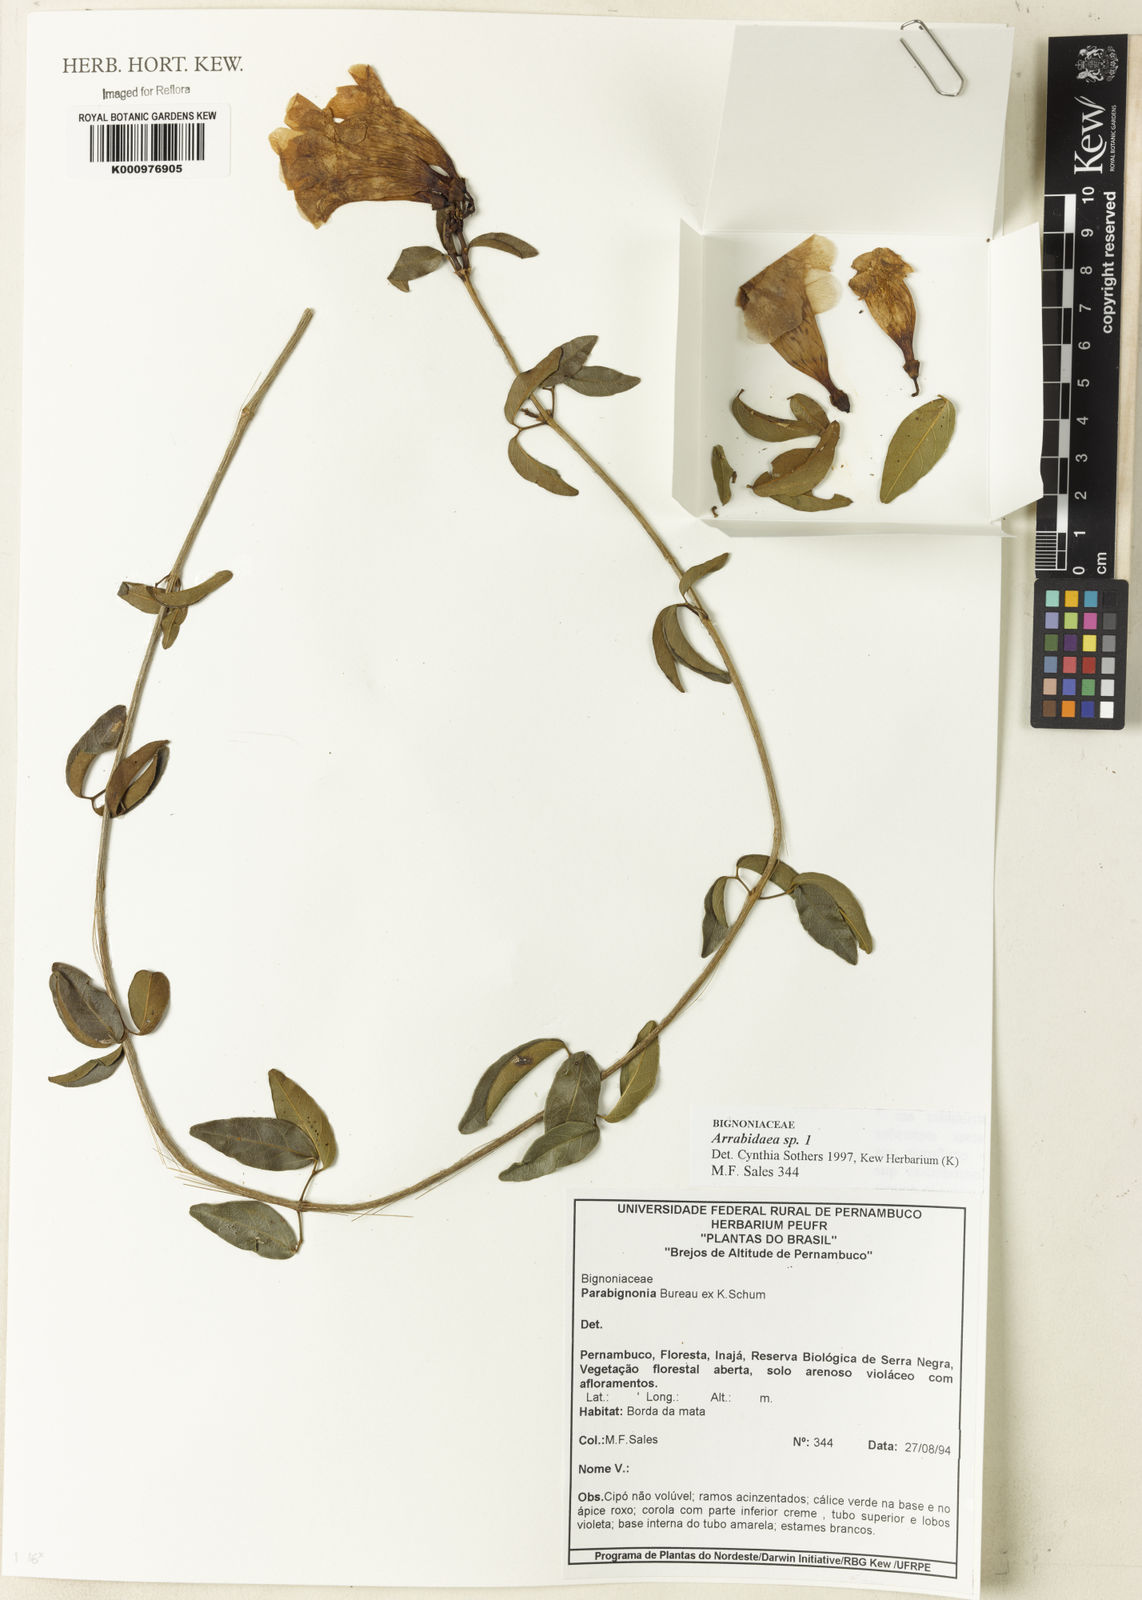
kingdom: Plantae
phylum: Tracheophyta
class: Magnoliopsida
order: Rosales
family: Rhamnaceae
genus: Arrabidaea
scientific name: Arrabidaea
